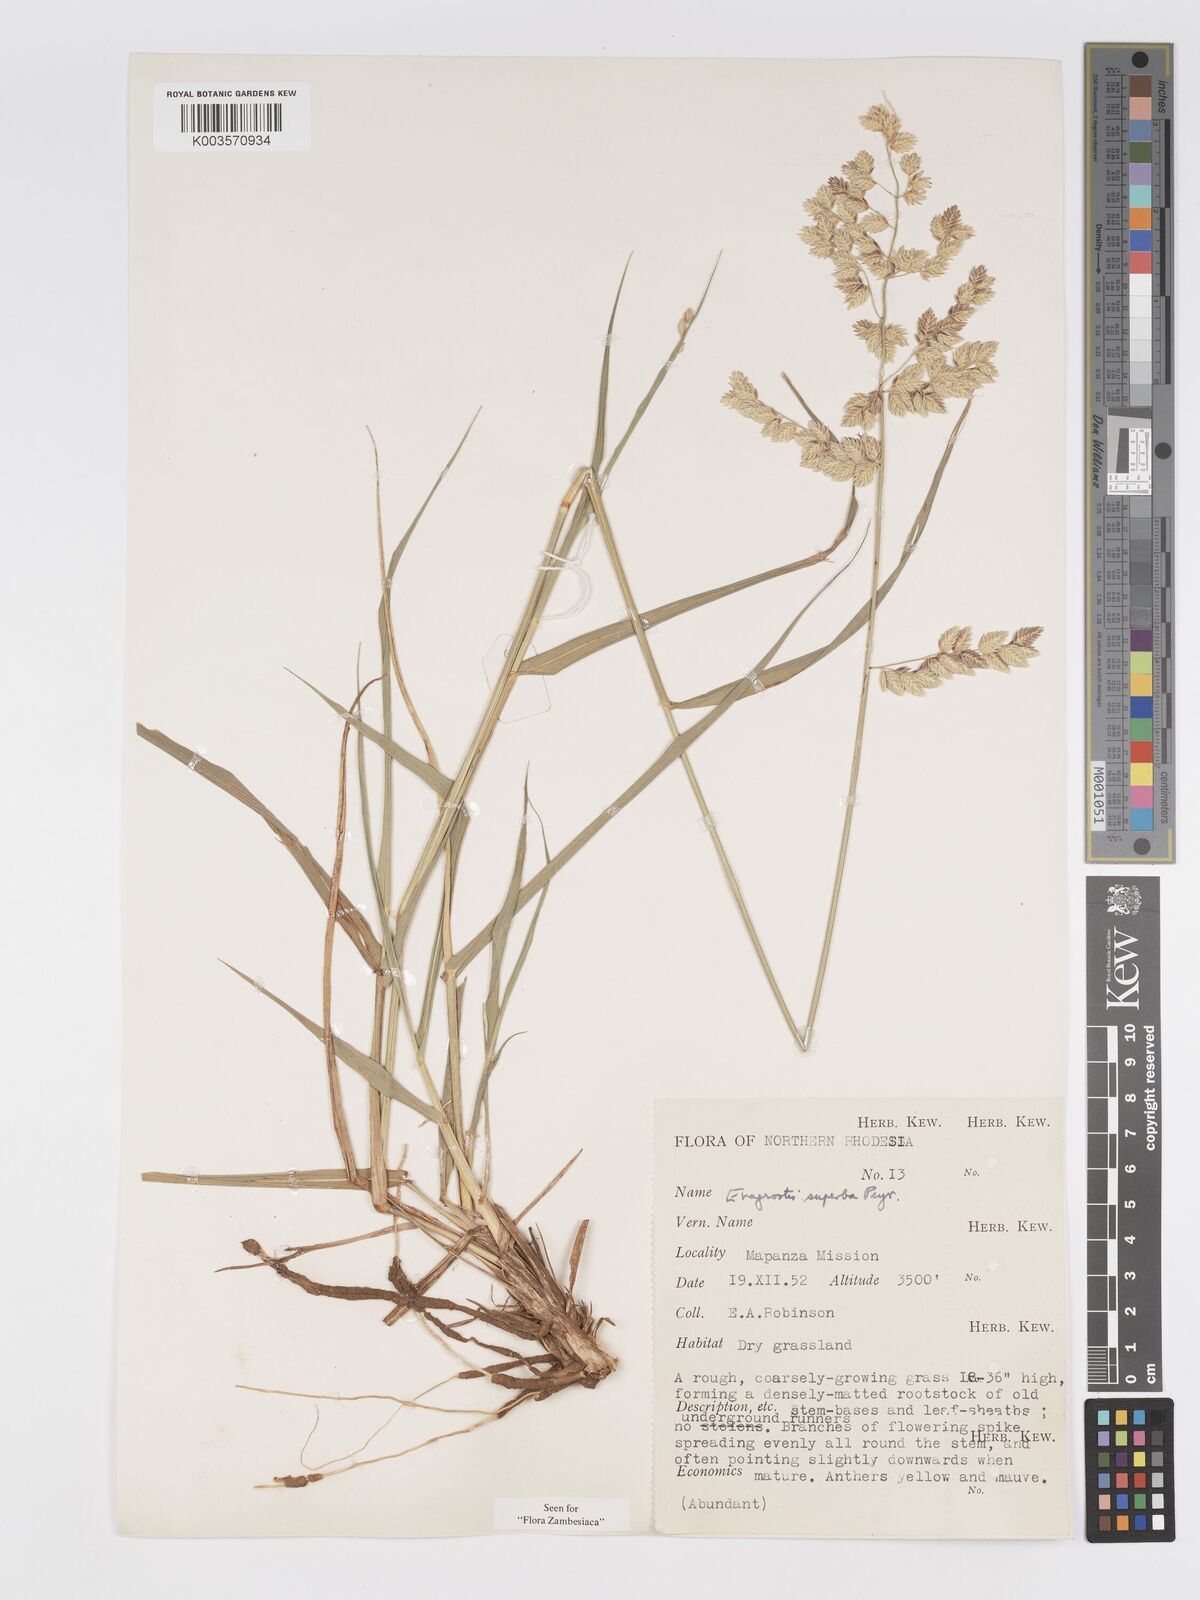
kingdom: Plantae
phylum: Tracheophyta
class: Liliopsida
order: Poales
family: Poaceae
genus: Eragrostis
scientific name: Eragrostis superba
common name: Wilman lovegrass
